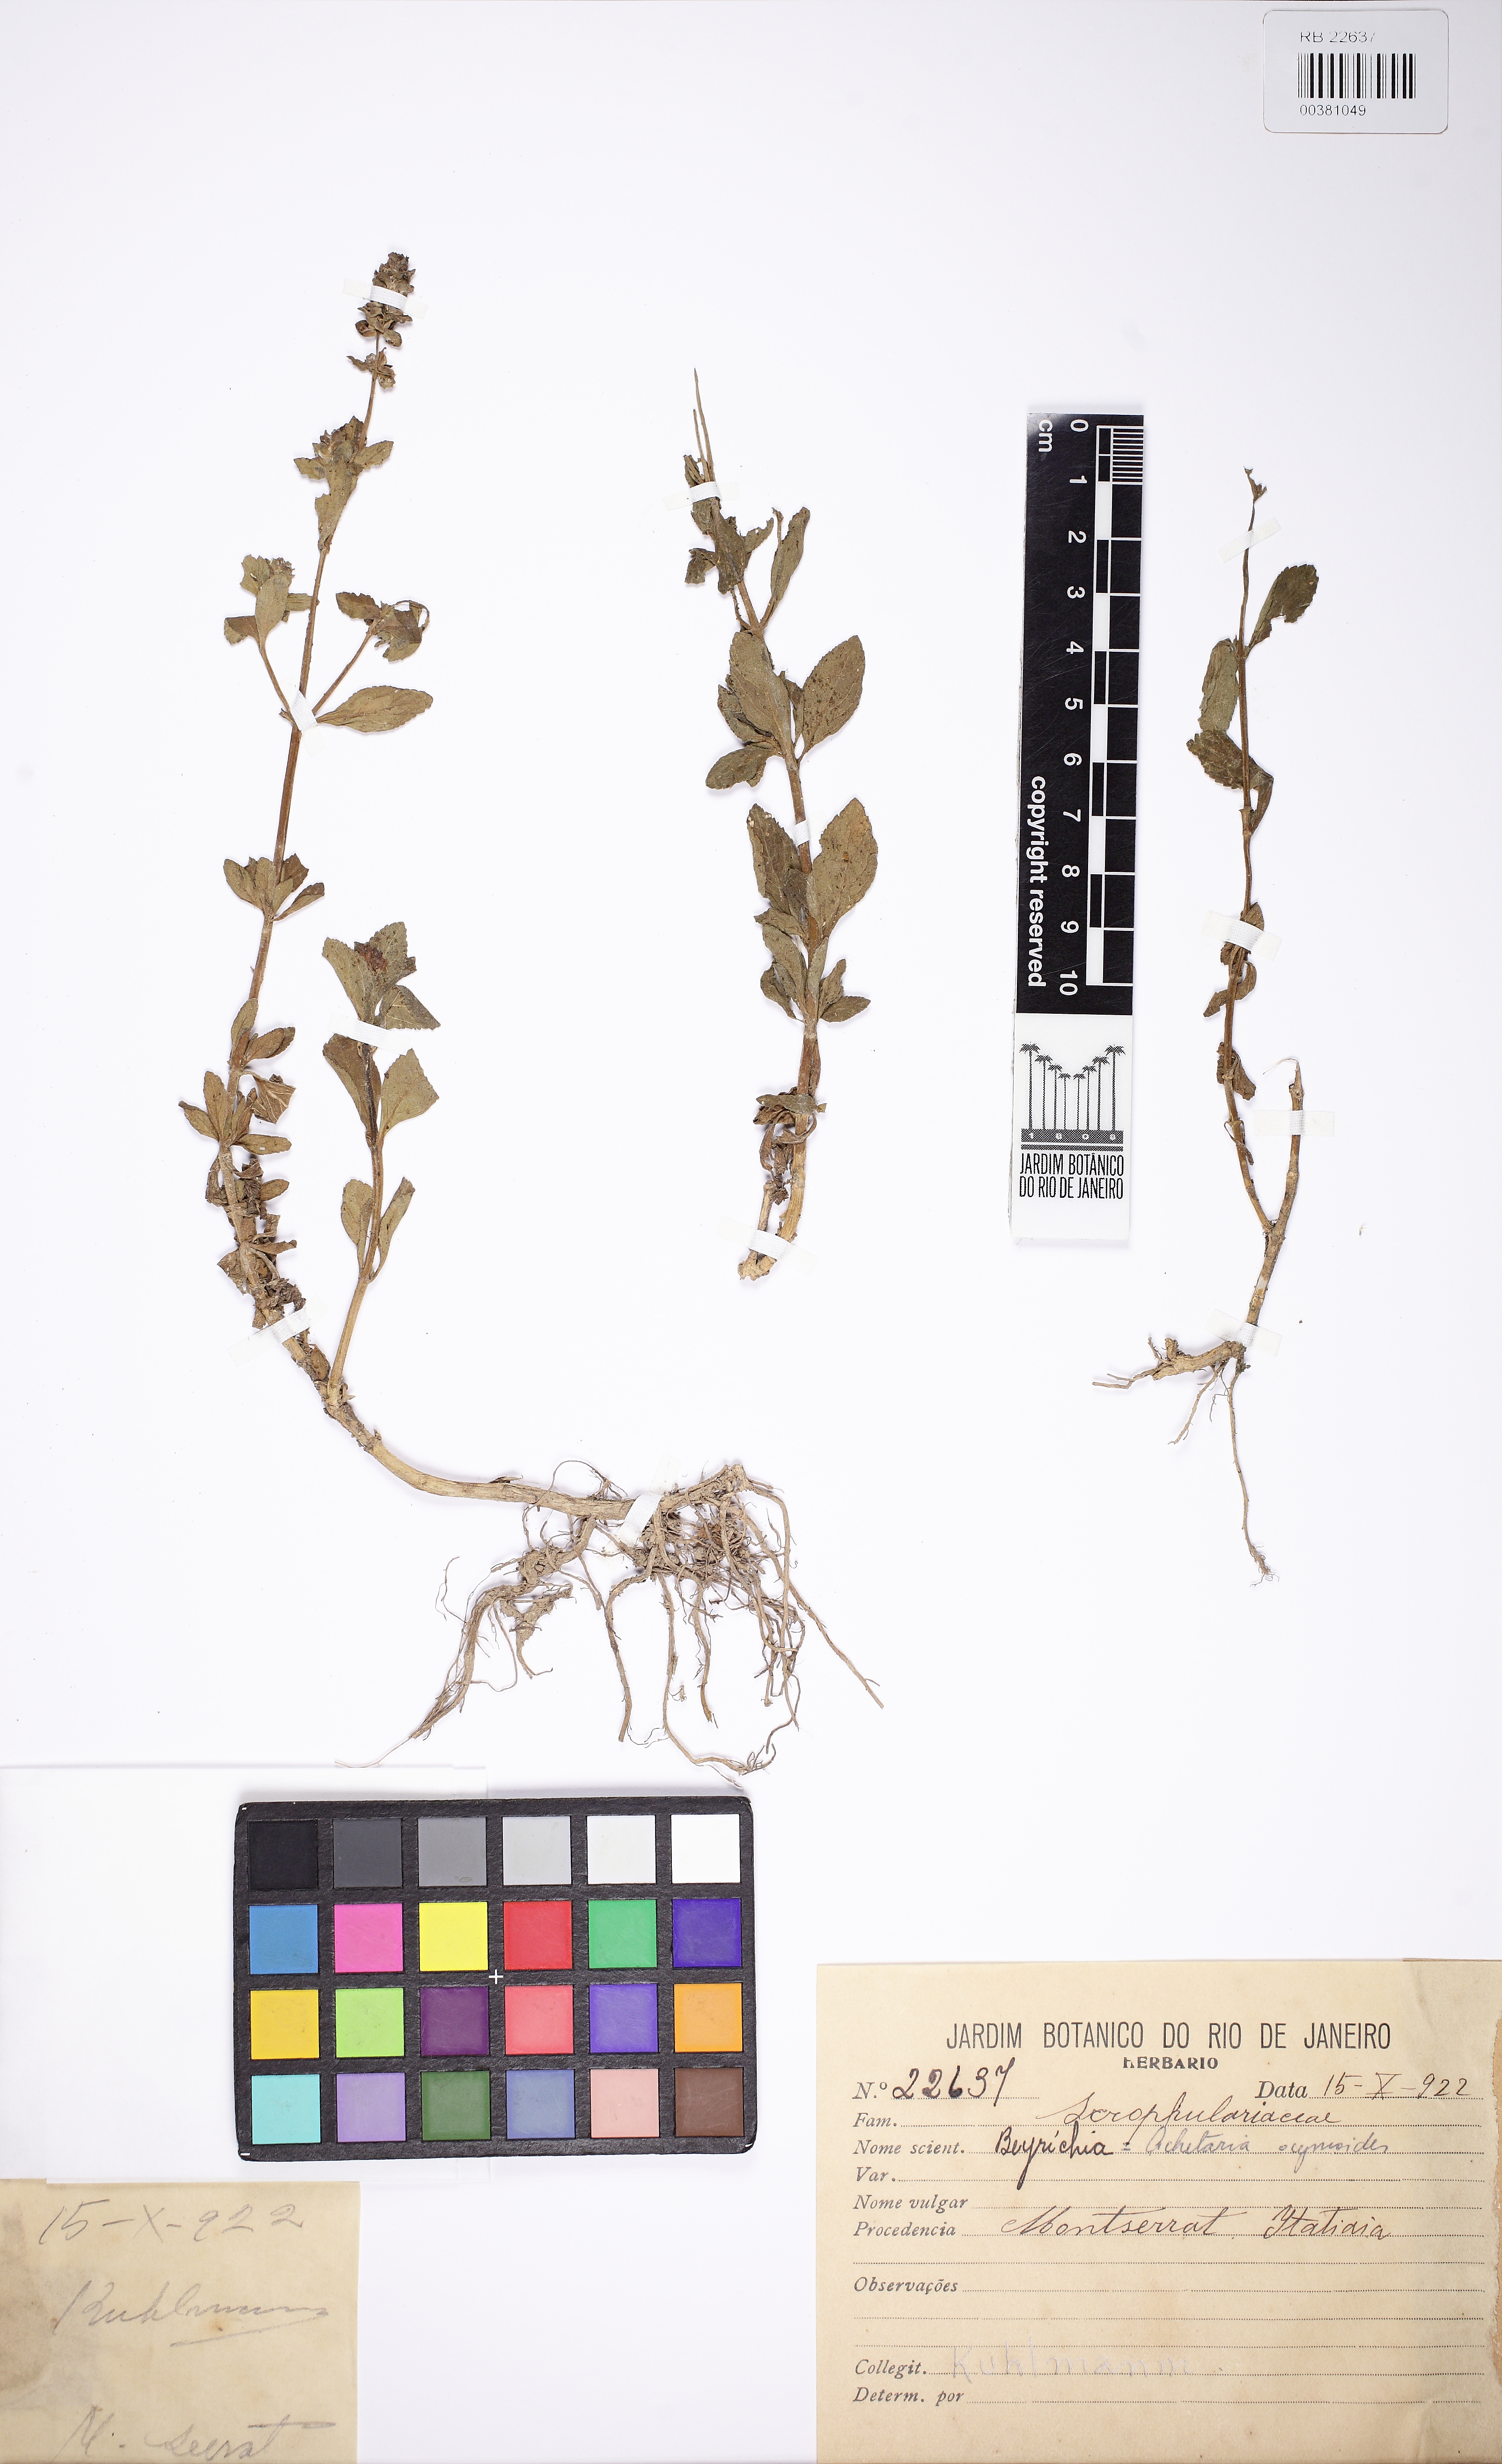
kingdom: Plantae
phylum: Tracheophyta
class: Magnoliopsida
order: Lamiales
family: Plantaginaceae
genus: Matourea
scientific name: Matourea ocymoides
